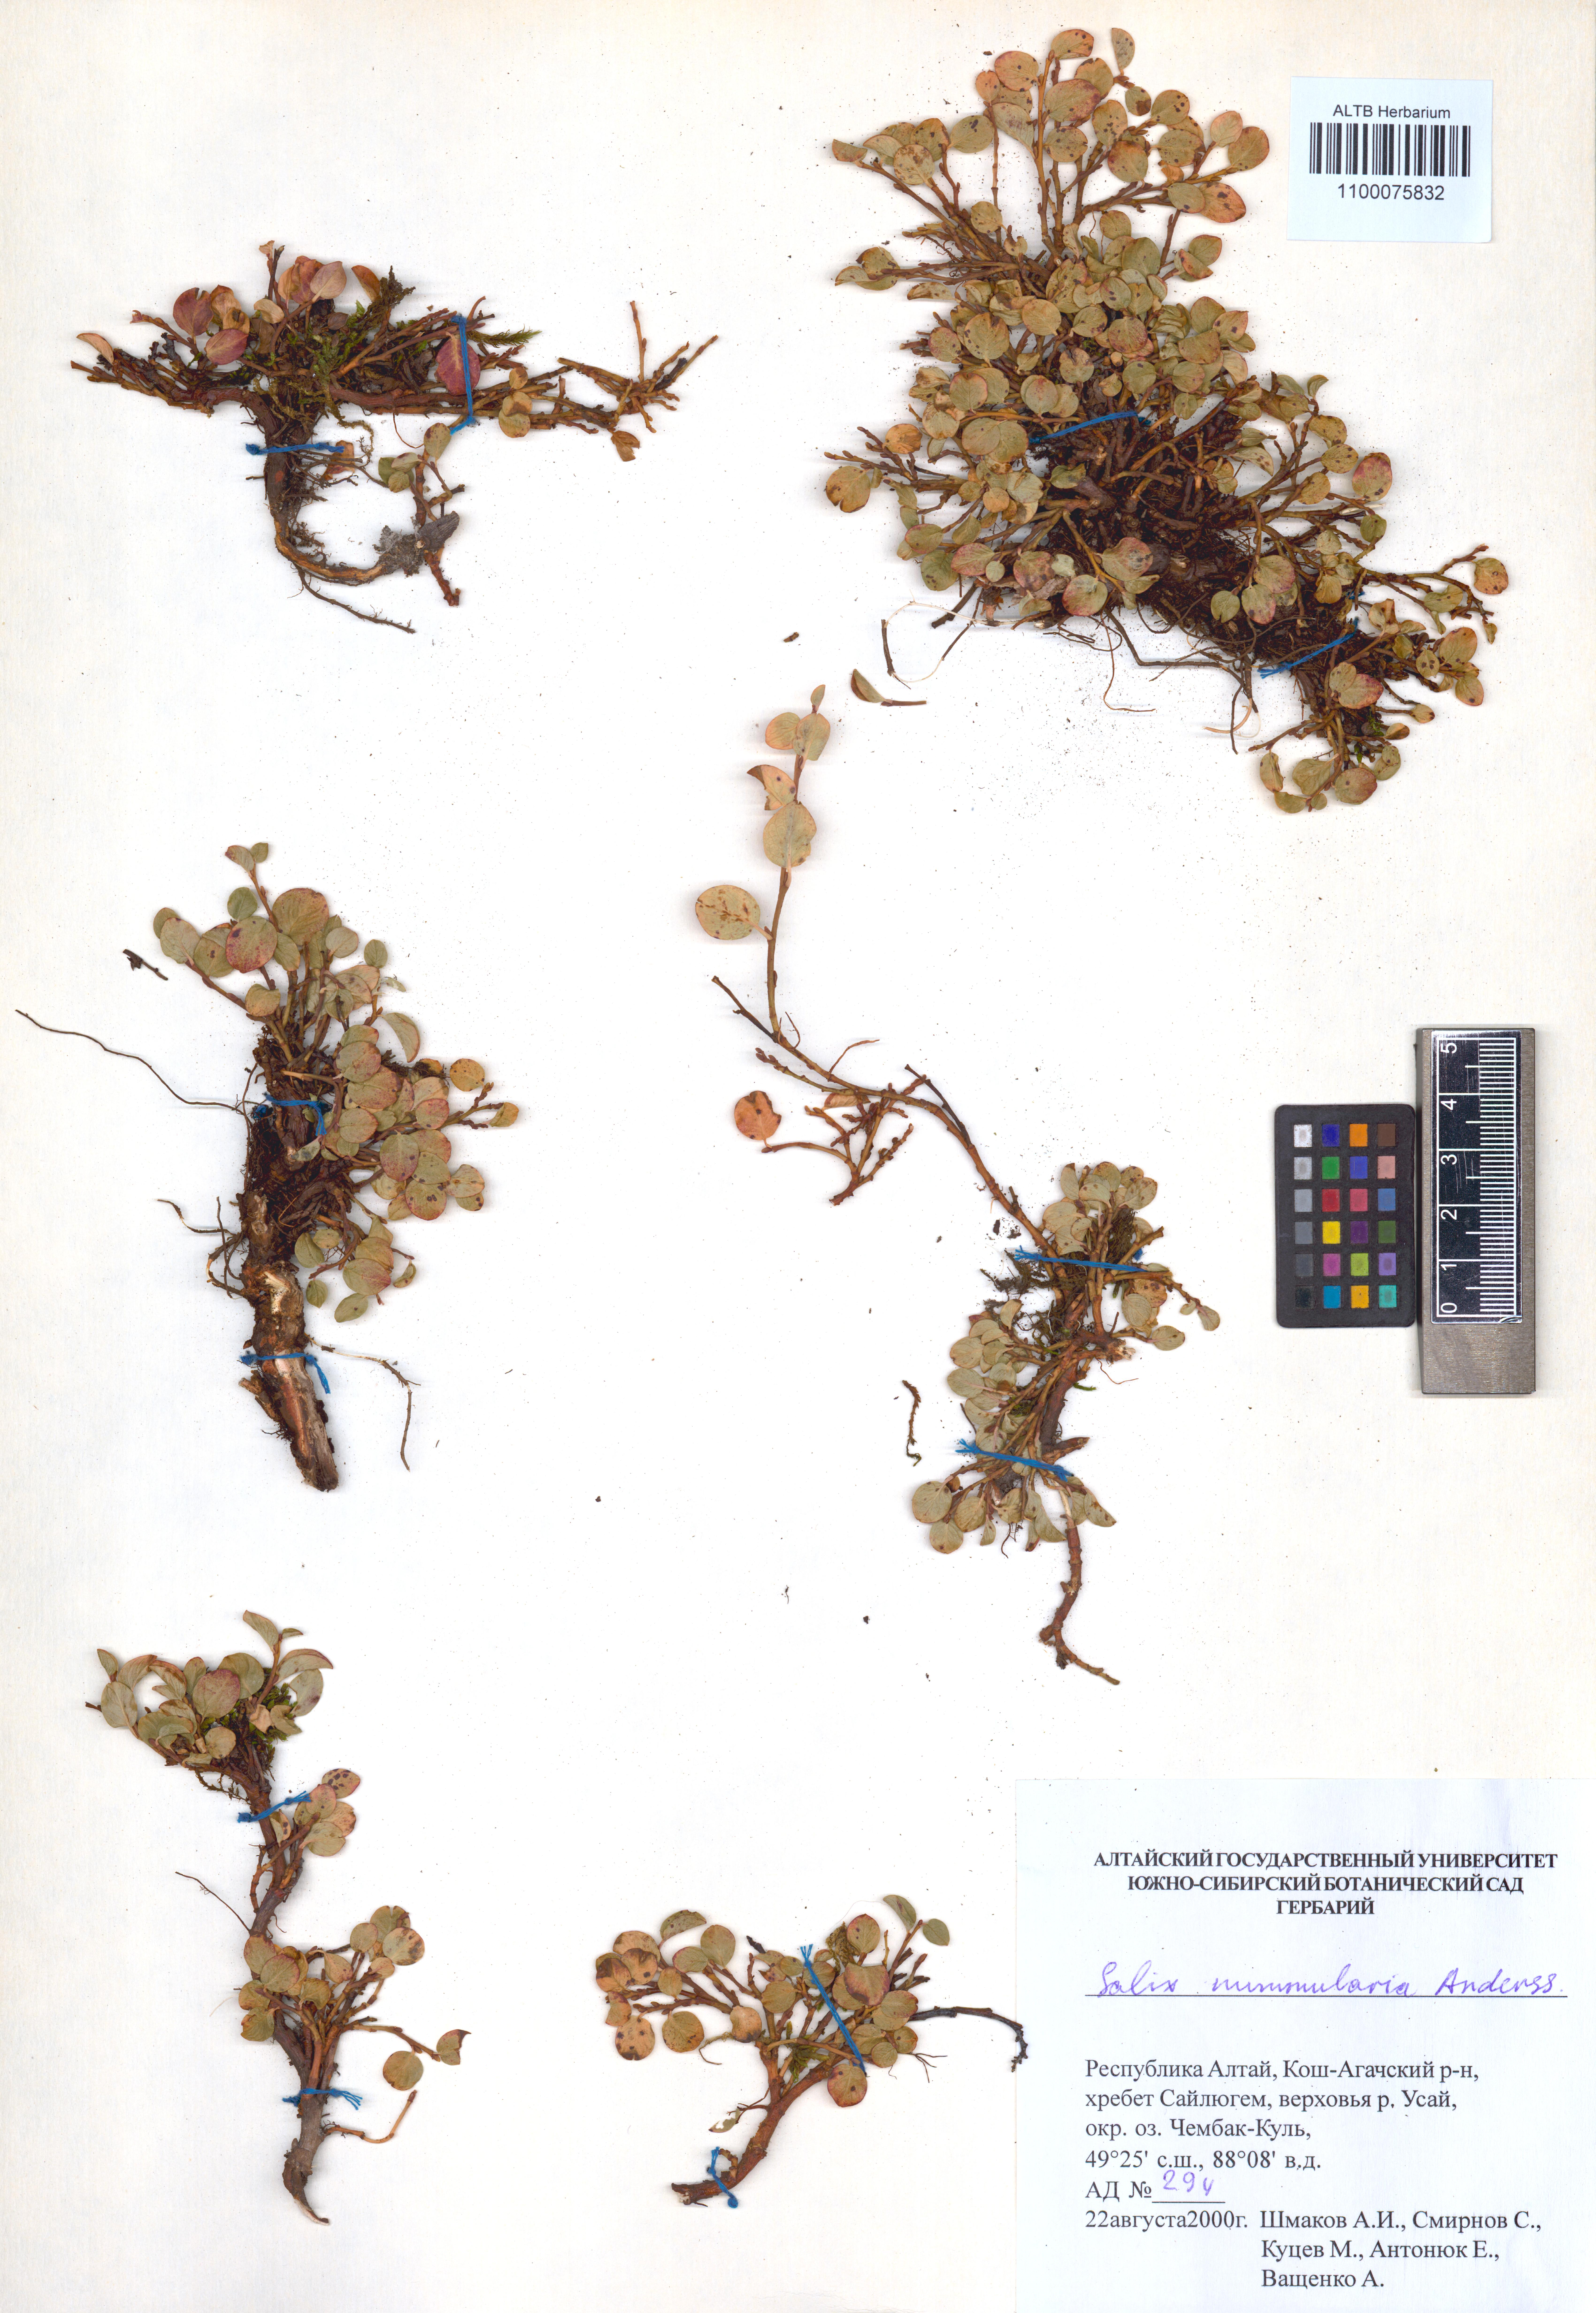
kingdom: Plantae
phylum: Tracheophyta
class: Magnoliopsida
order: Malpighiales
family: Salicaceae
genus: Salix
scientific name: Salix nummularia
